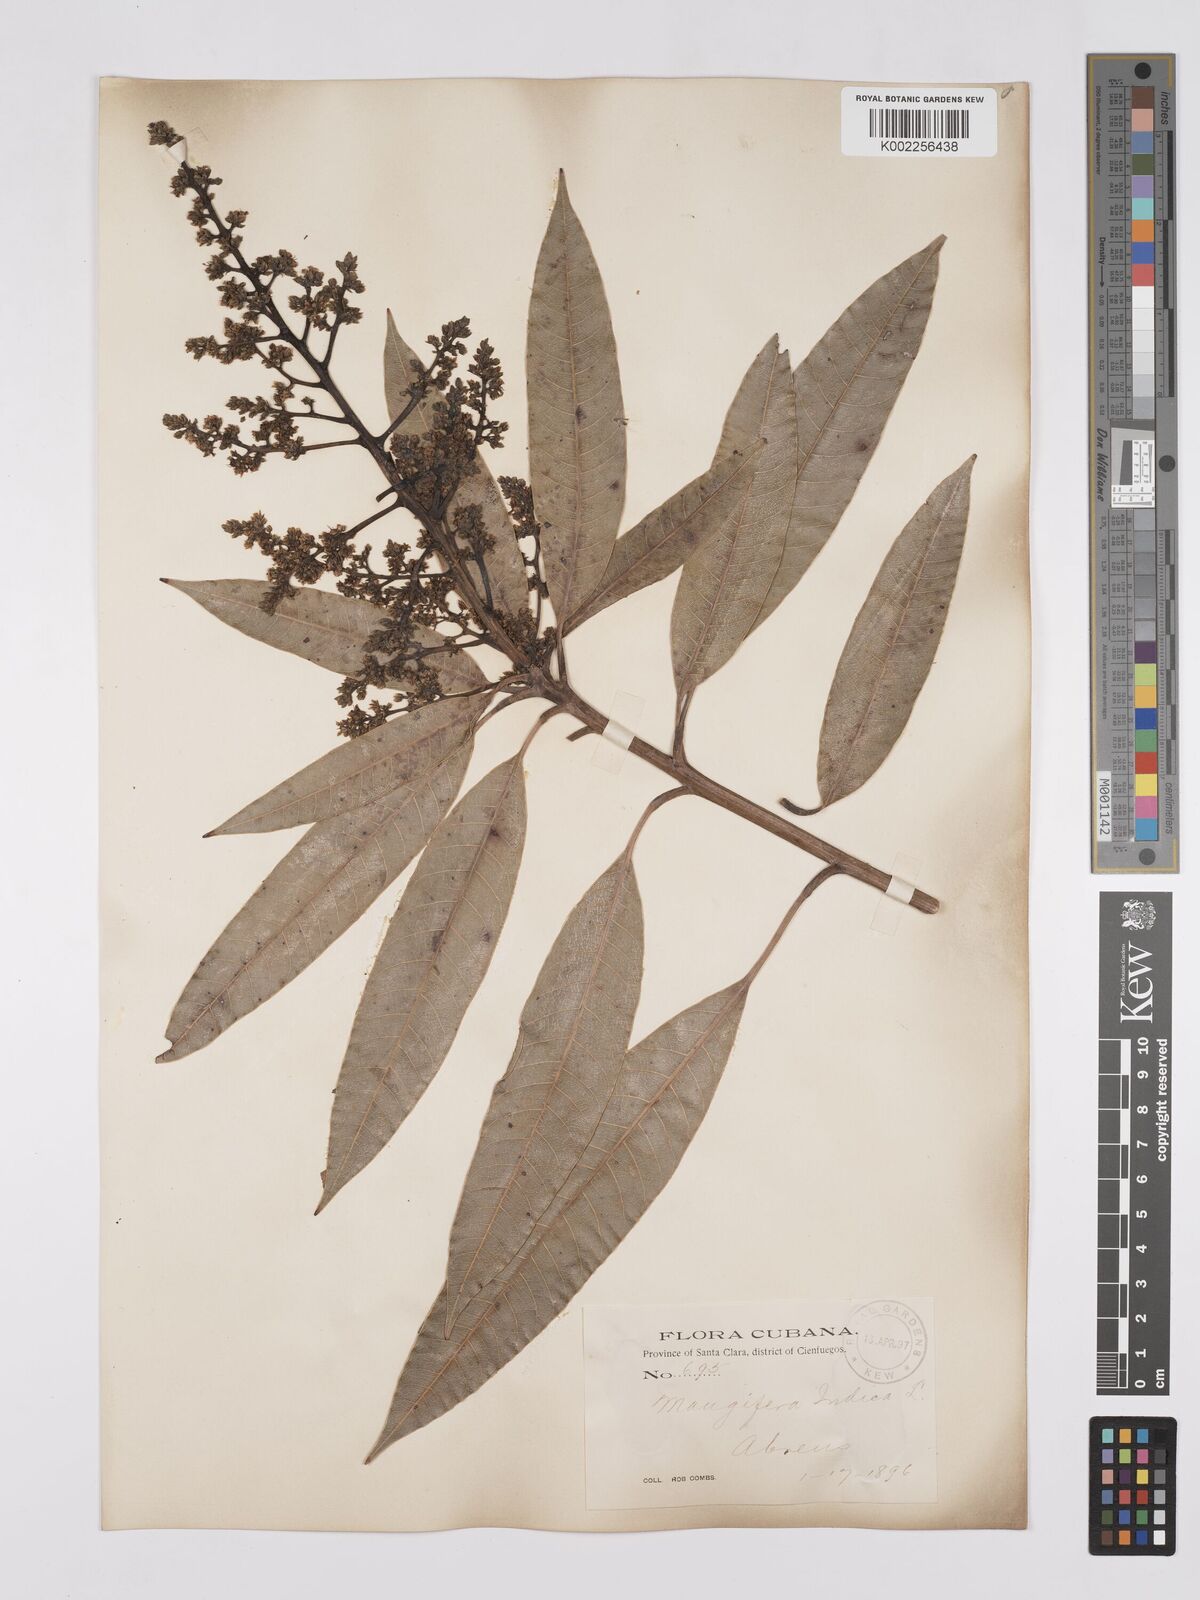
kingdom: Plantae
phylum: Tracheophyta
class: Magnoliopsida
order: Sapindales
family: Anacardiaceae
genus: Mangifera
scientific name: Mangifera indica
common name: Mango
